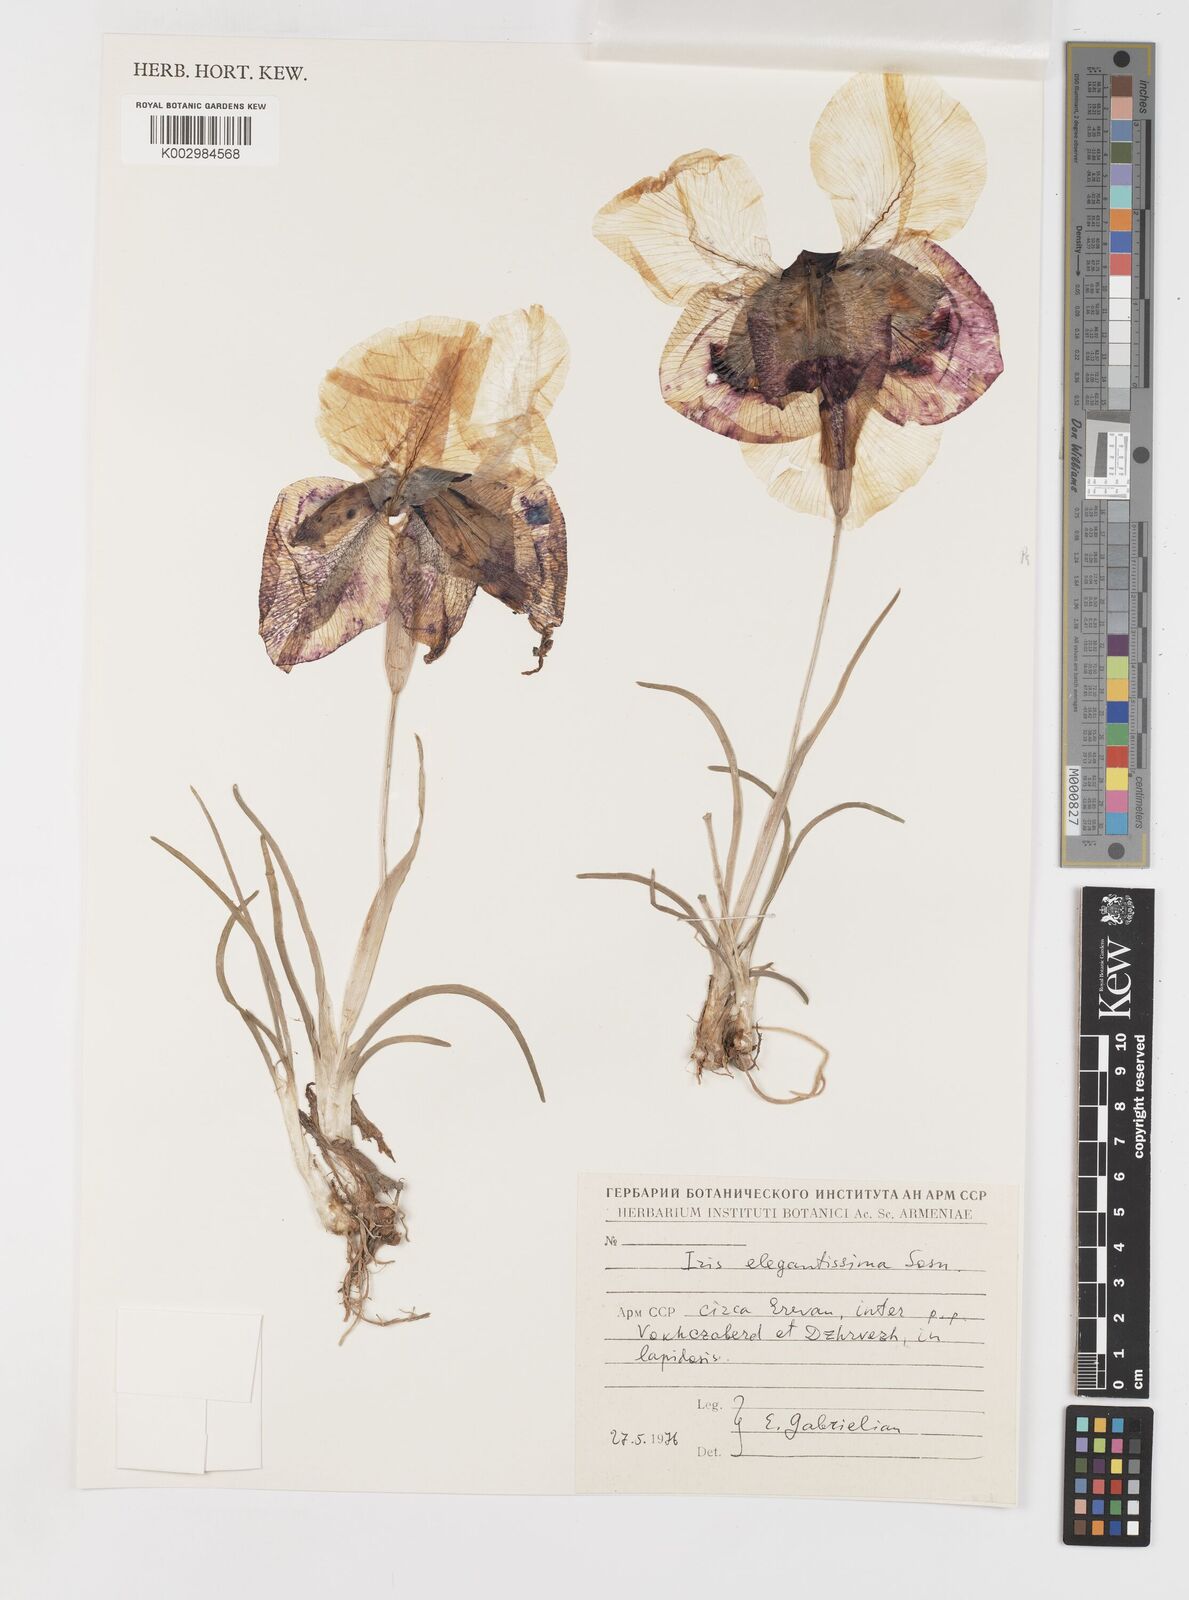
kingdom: Plantae
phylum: Tracheophyta
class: Liliopsida
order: Asparagales
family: Iridaceae
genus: Iris
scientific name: Iris iberica
